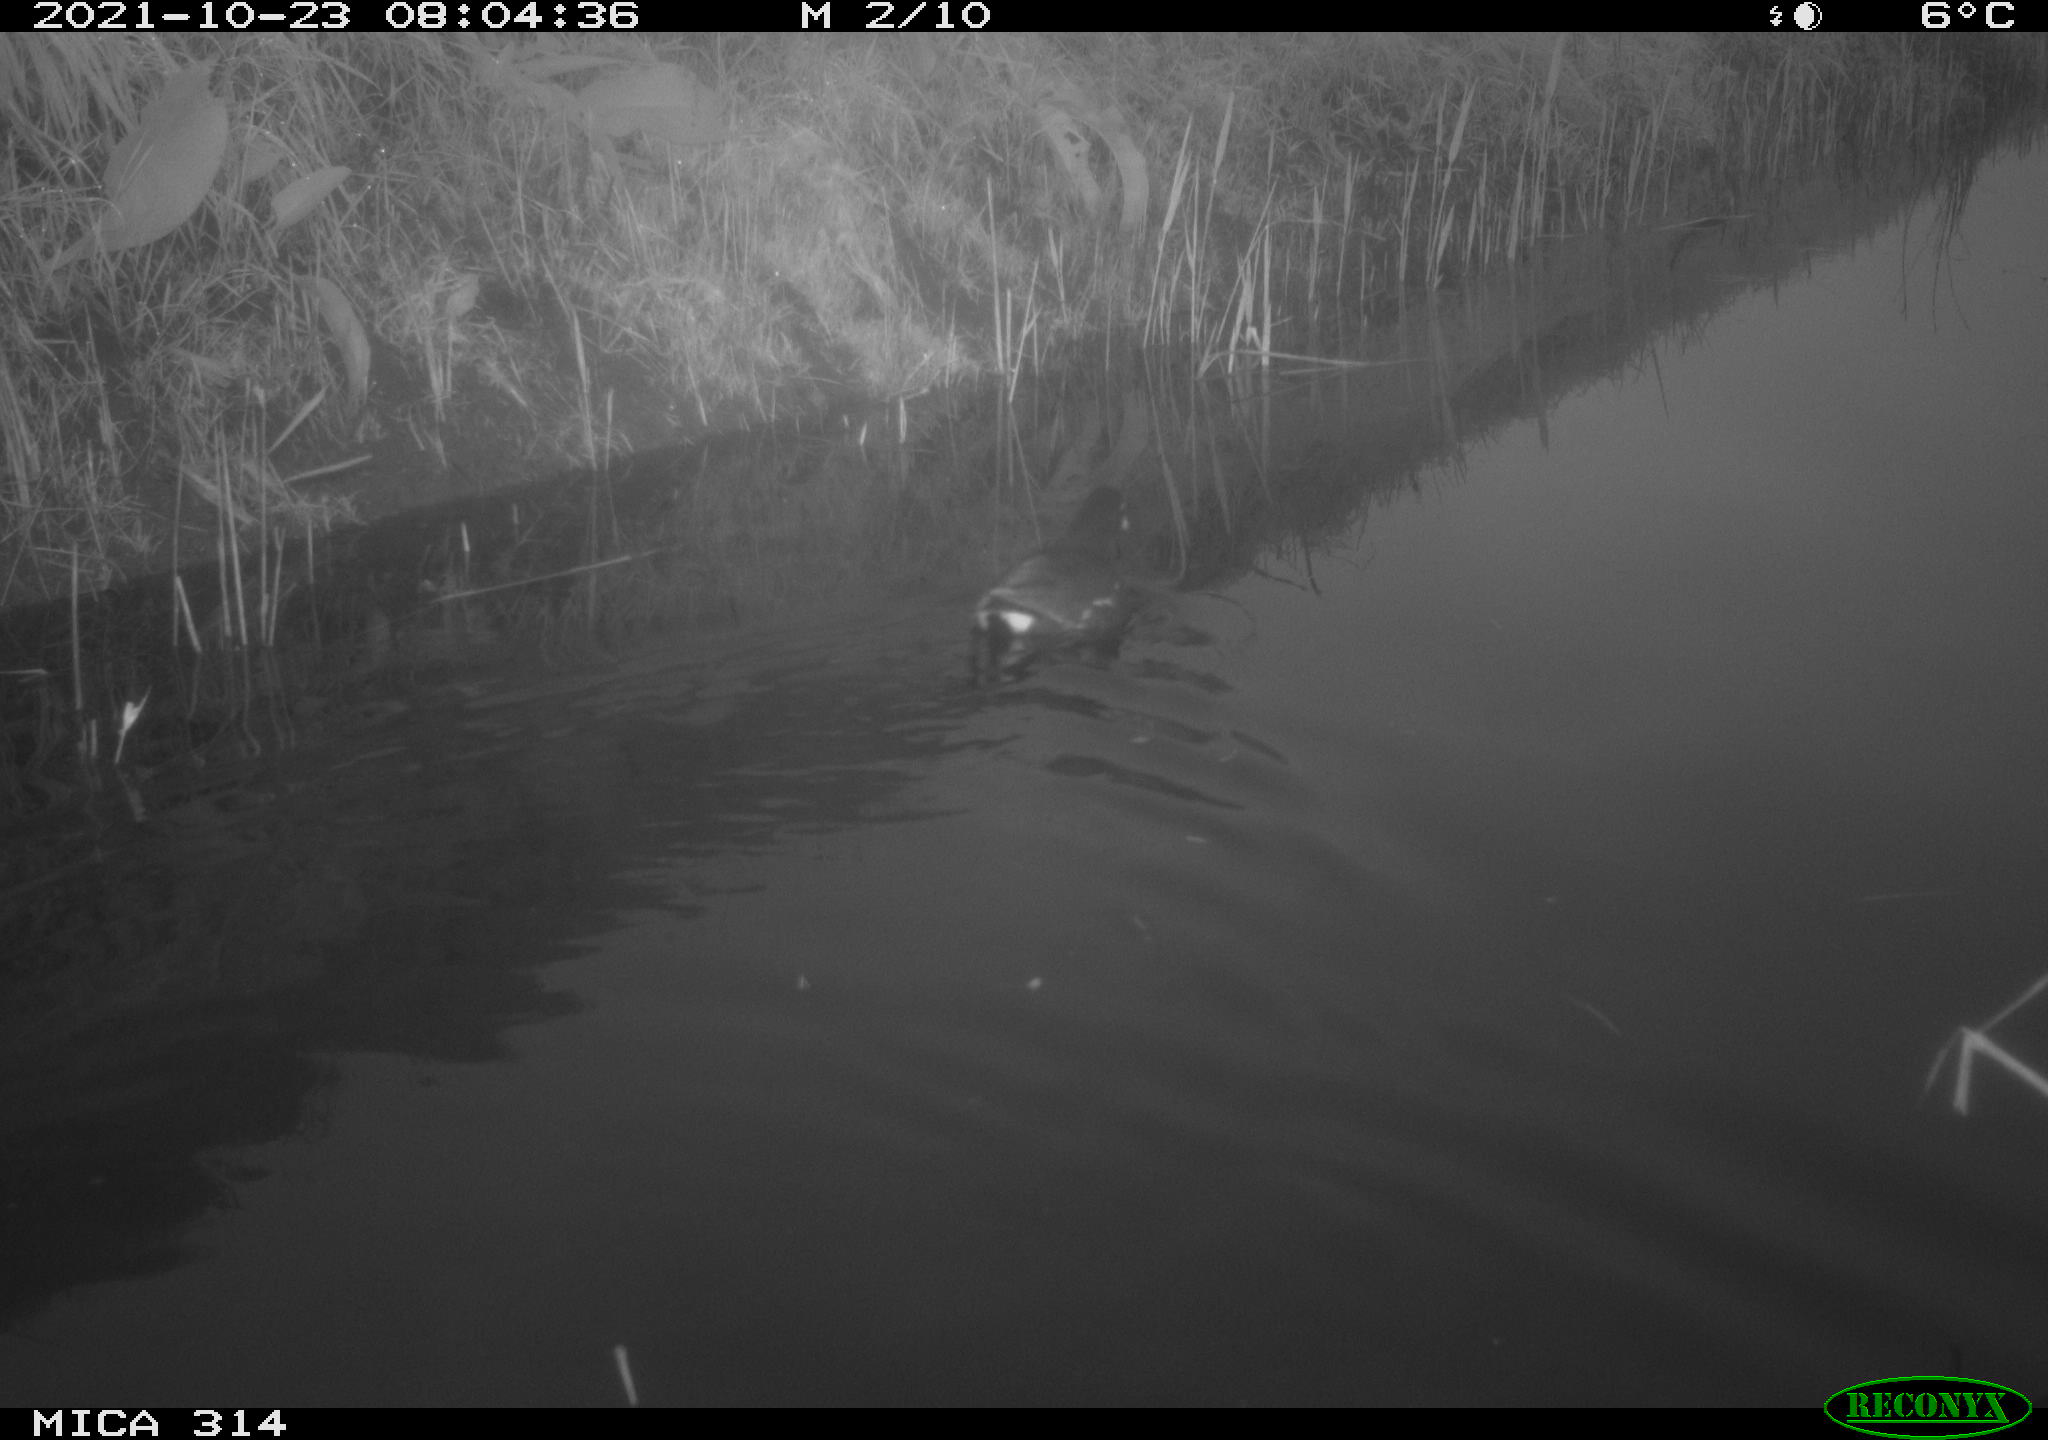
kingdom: Animalia
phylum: Chordata
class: Aves
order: Gruiformes
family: Rallidae
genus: Gallinula
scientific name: Gallinula chloropus
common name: Common moorhen
